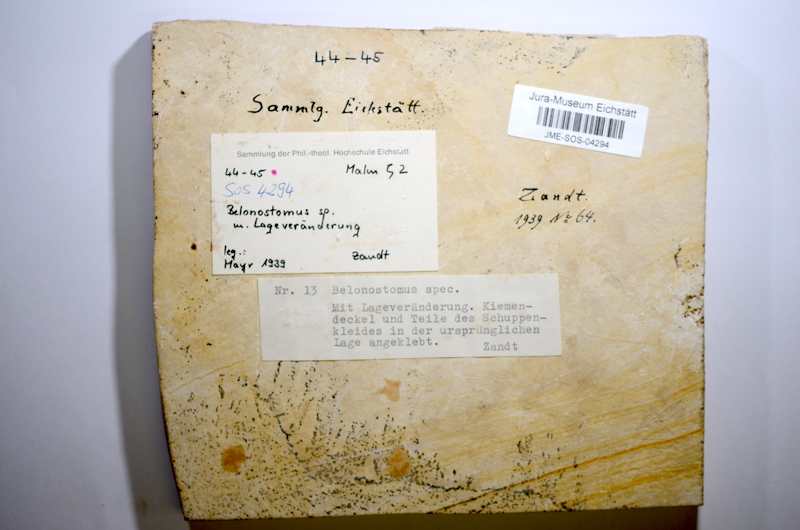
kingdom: Animalia
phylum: Chordata
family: Aspidorhynchidae
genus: Belonostomus
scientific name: Belonostomus
